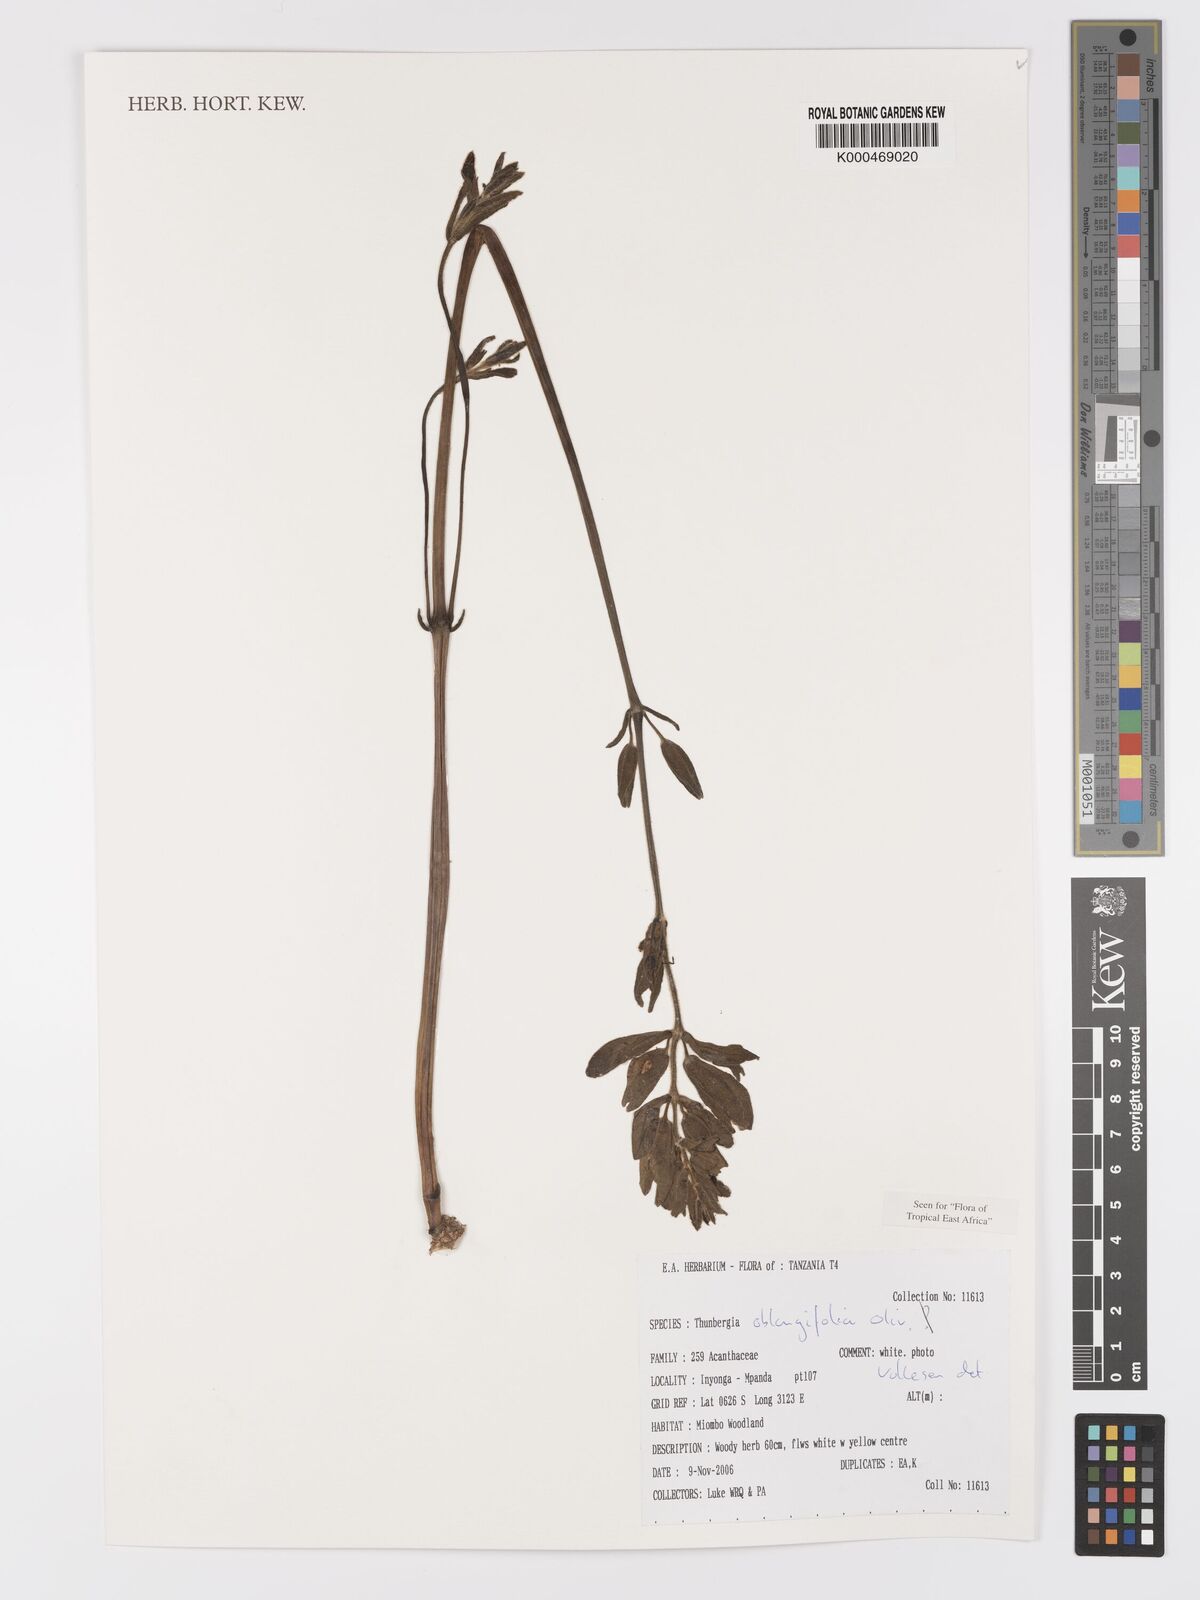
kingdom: Plantae
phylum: Tracheophyta
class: Magnoliopsida
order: Lamiales
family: Acanthaceae
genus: Thunbergia
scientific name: Thunbergia oblongifolia
